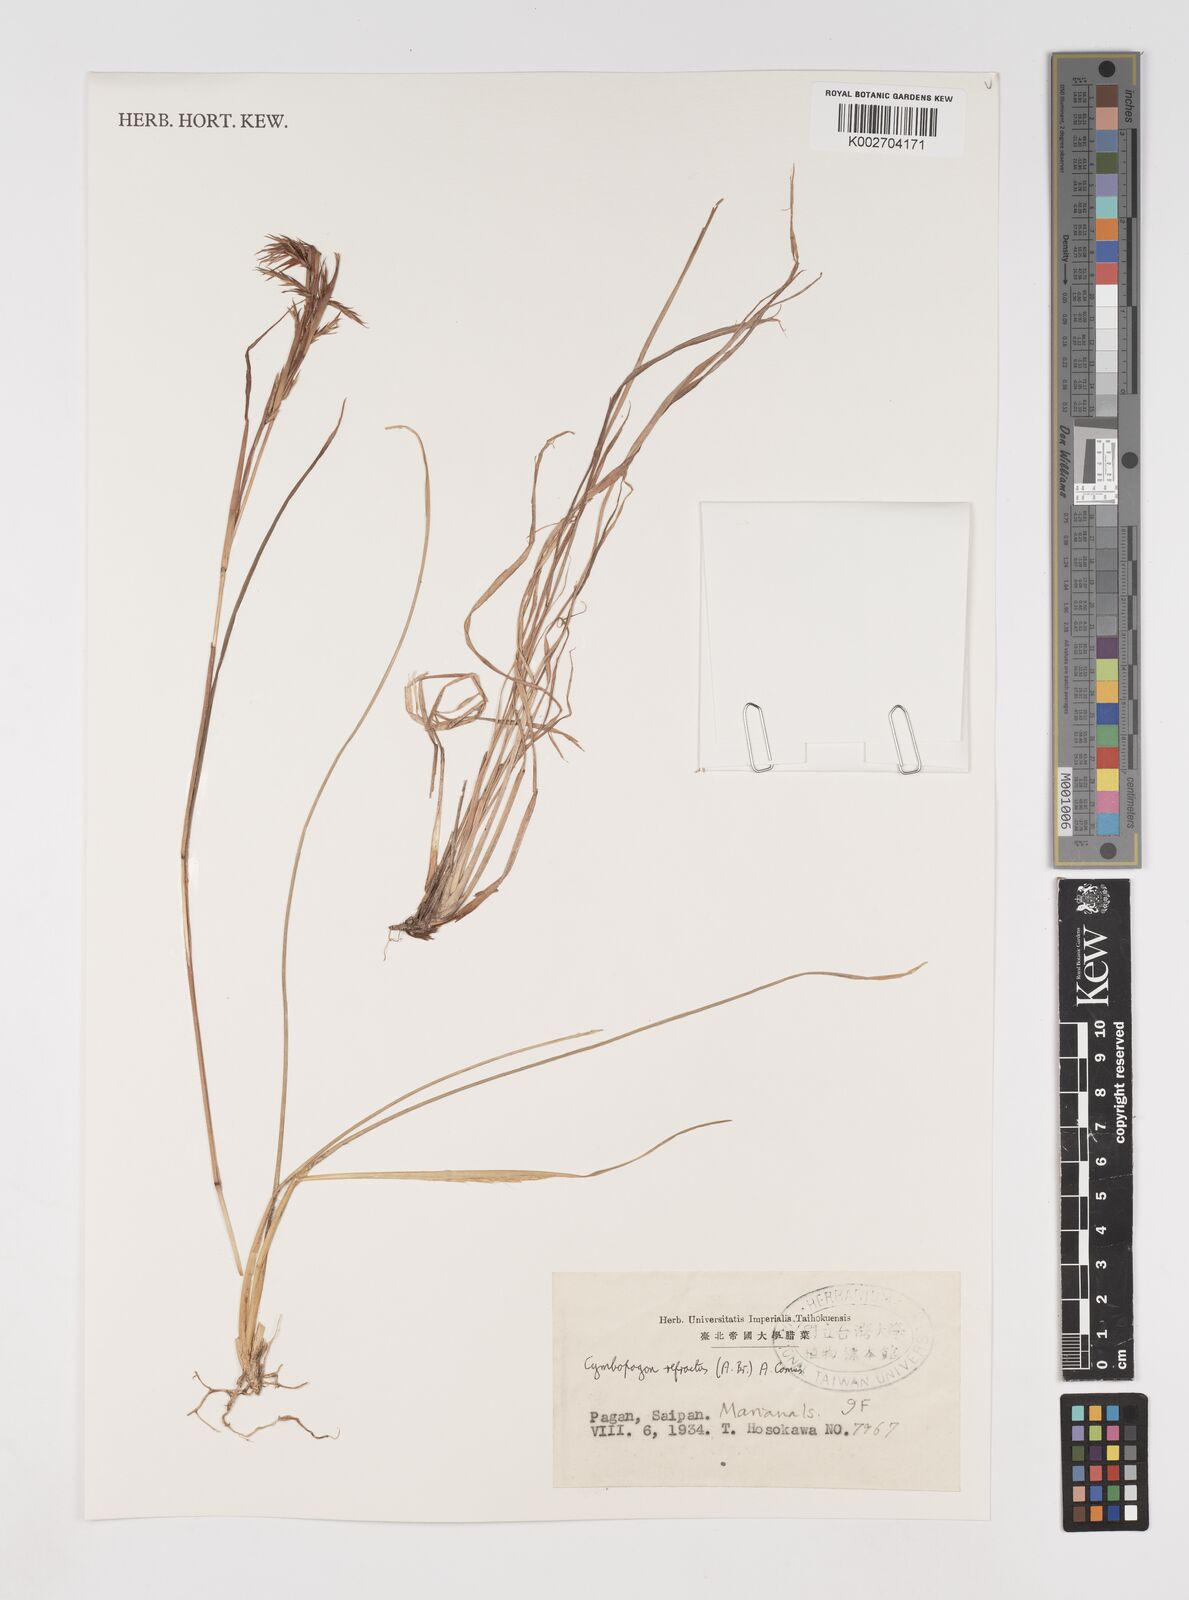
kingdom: Plantae
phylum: Tracheophyta
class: Liliopsida
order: Poales
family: Poaceae
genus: Cymbopogon
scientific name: Cymbopogon refractus
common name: Barbwire grass
